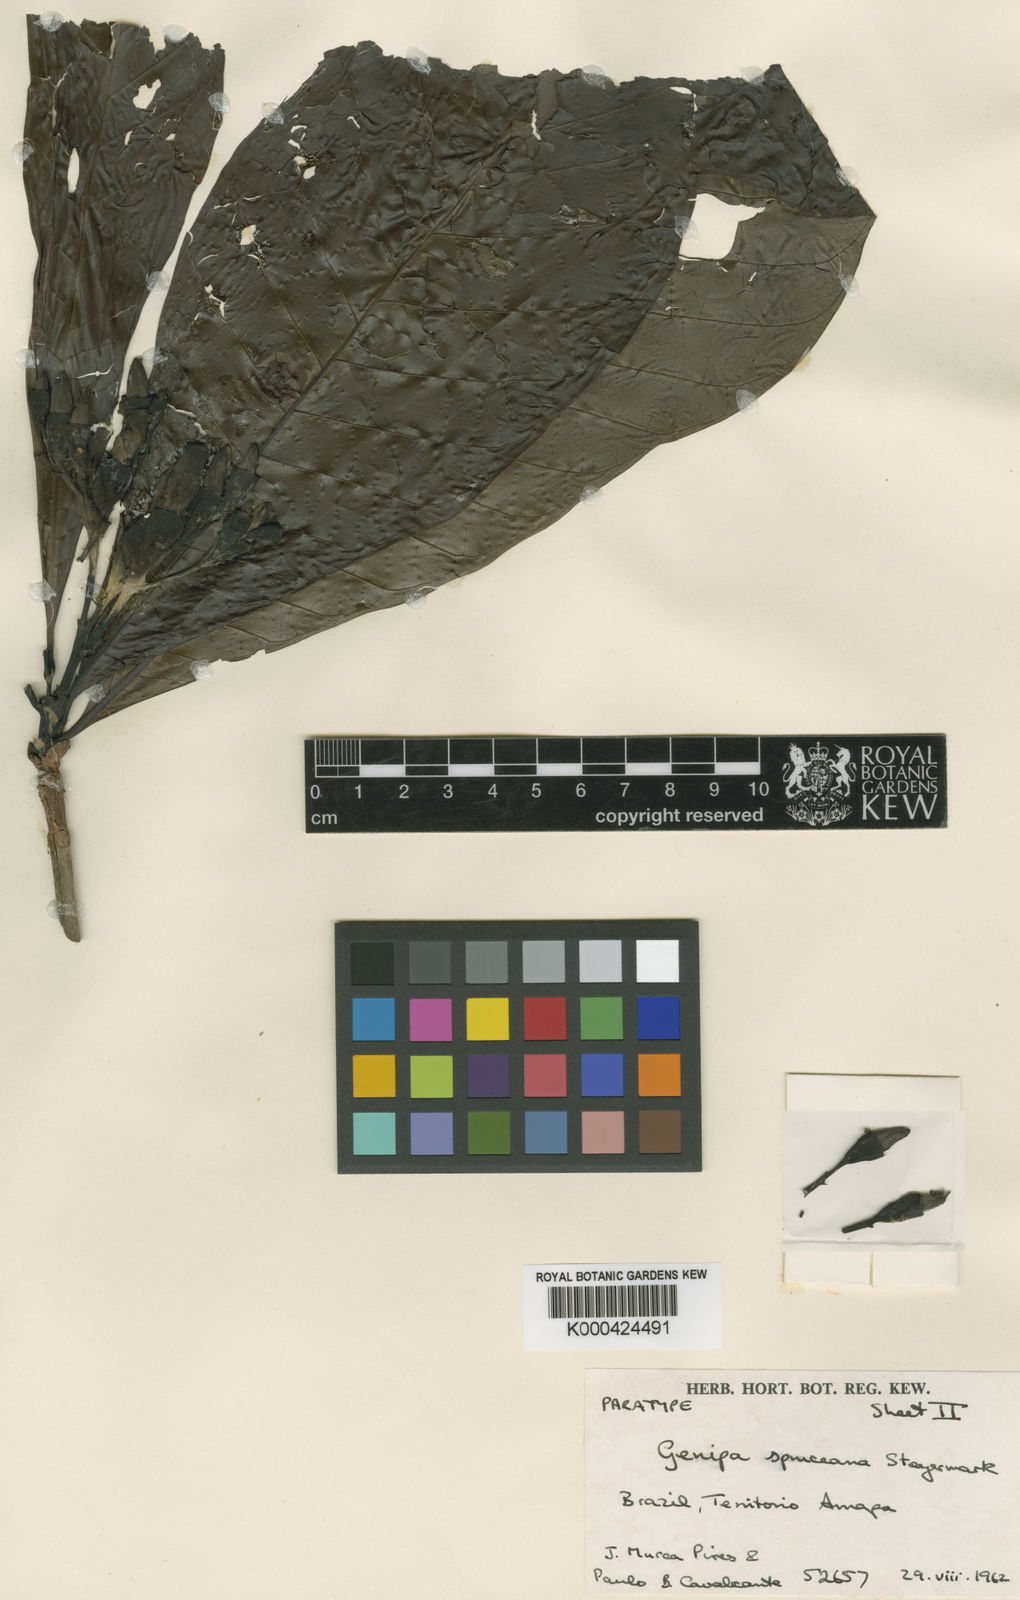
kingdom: Plantae
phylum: Tracheophyta
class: Magnoliopsida
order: Gentianales
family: Rubiaceae
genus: Genipa
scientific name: Genipa americana
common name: Genipap
